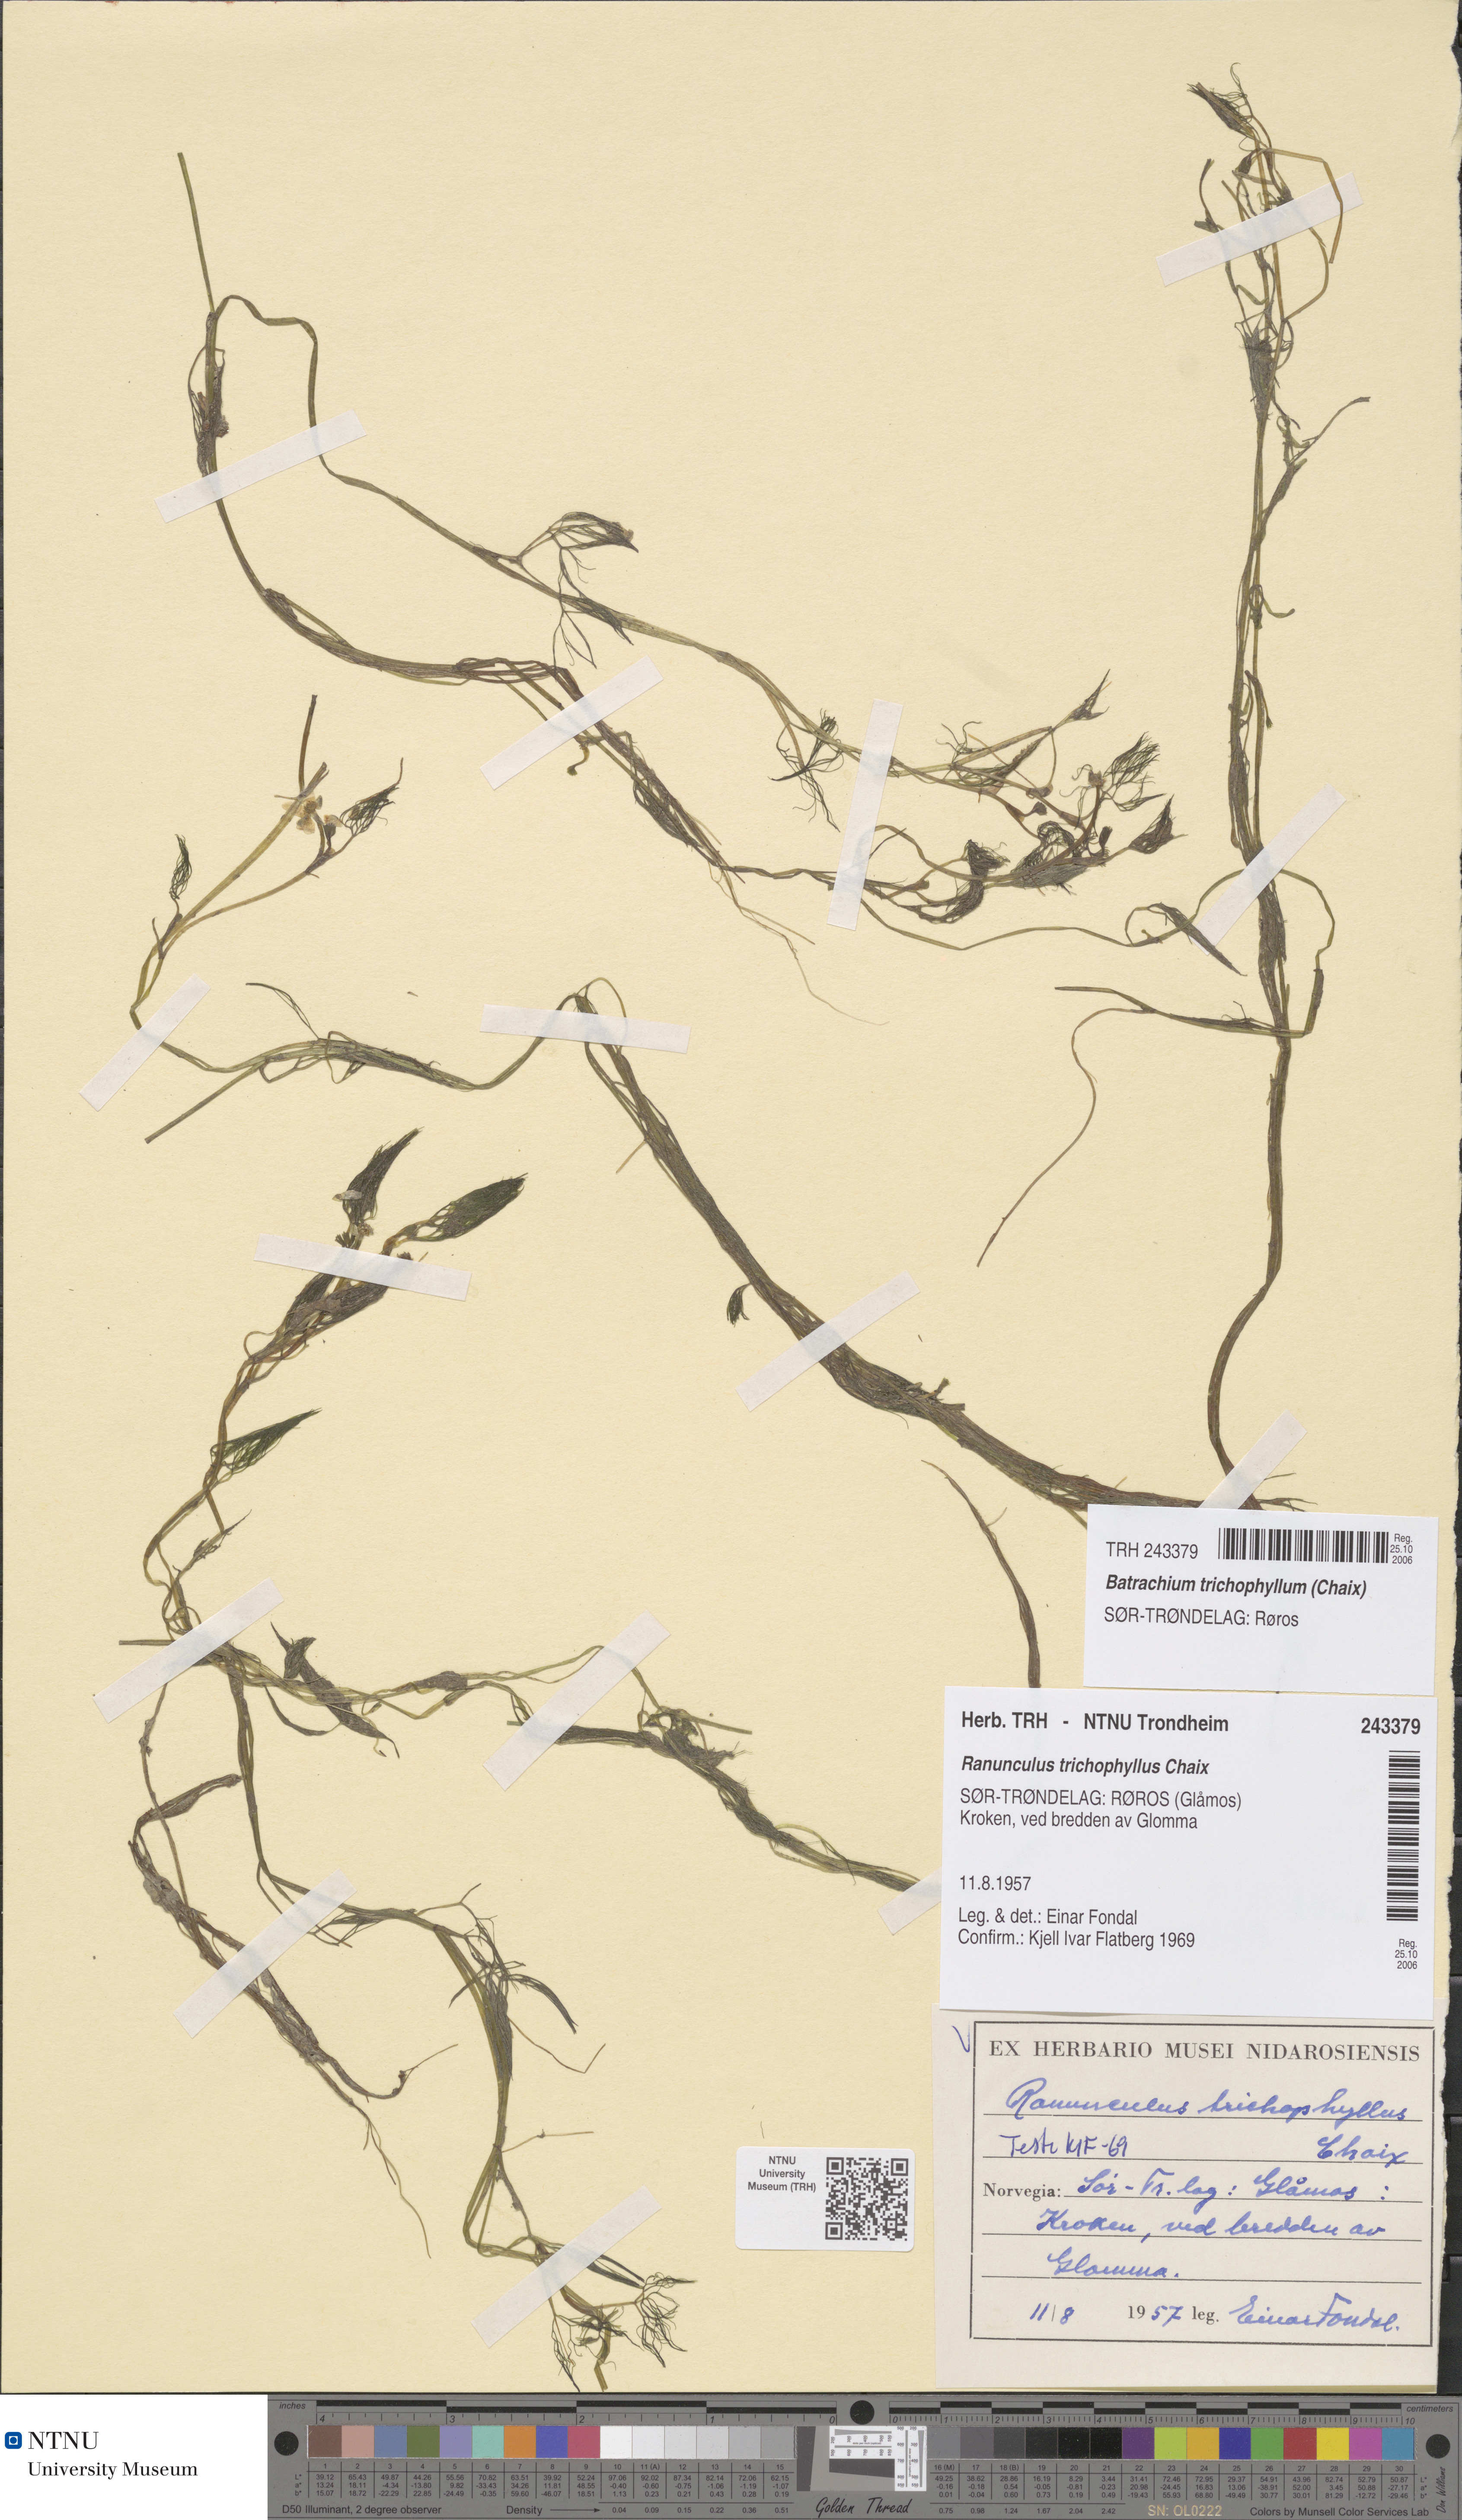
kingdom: Plantae
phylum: Tracheophyta
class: Magnoliopsida
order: Ranunculales
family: Ranunculaceae
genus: Ranunculus
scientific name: Ranunculus trichophyllus
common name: Thread-leaved water-crowfoot
